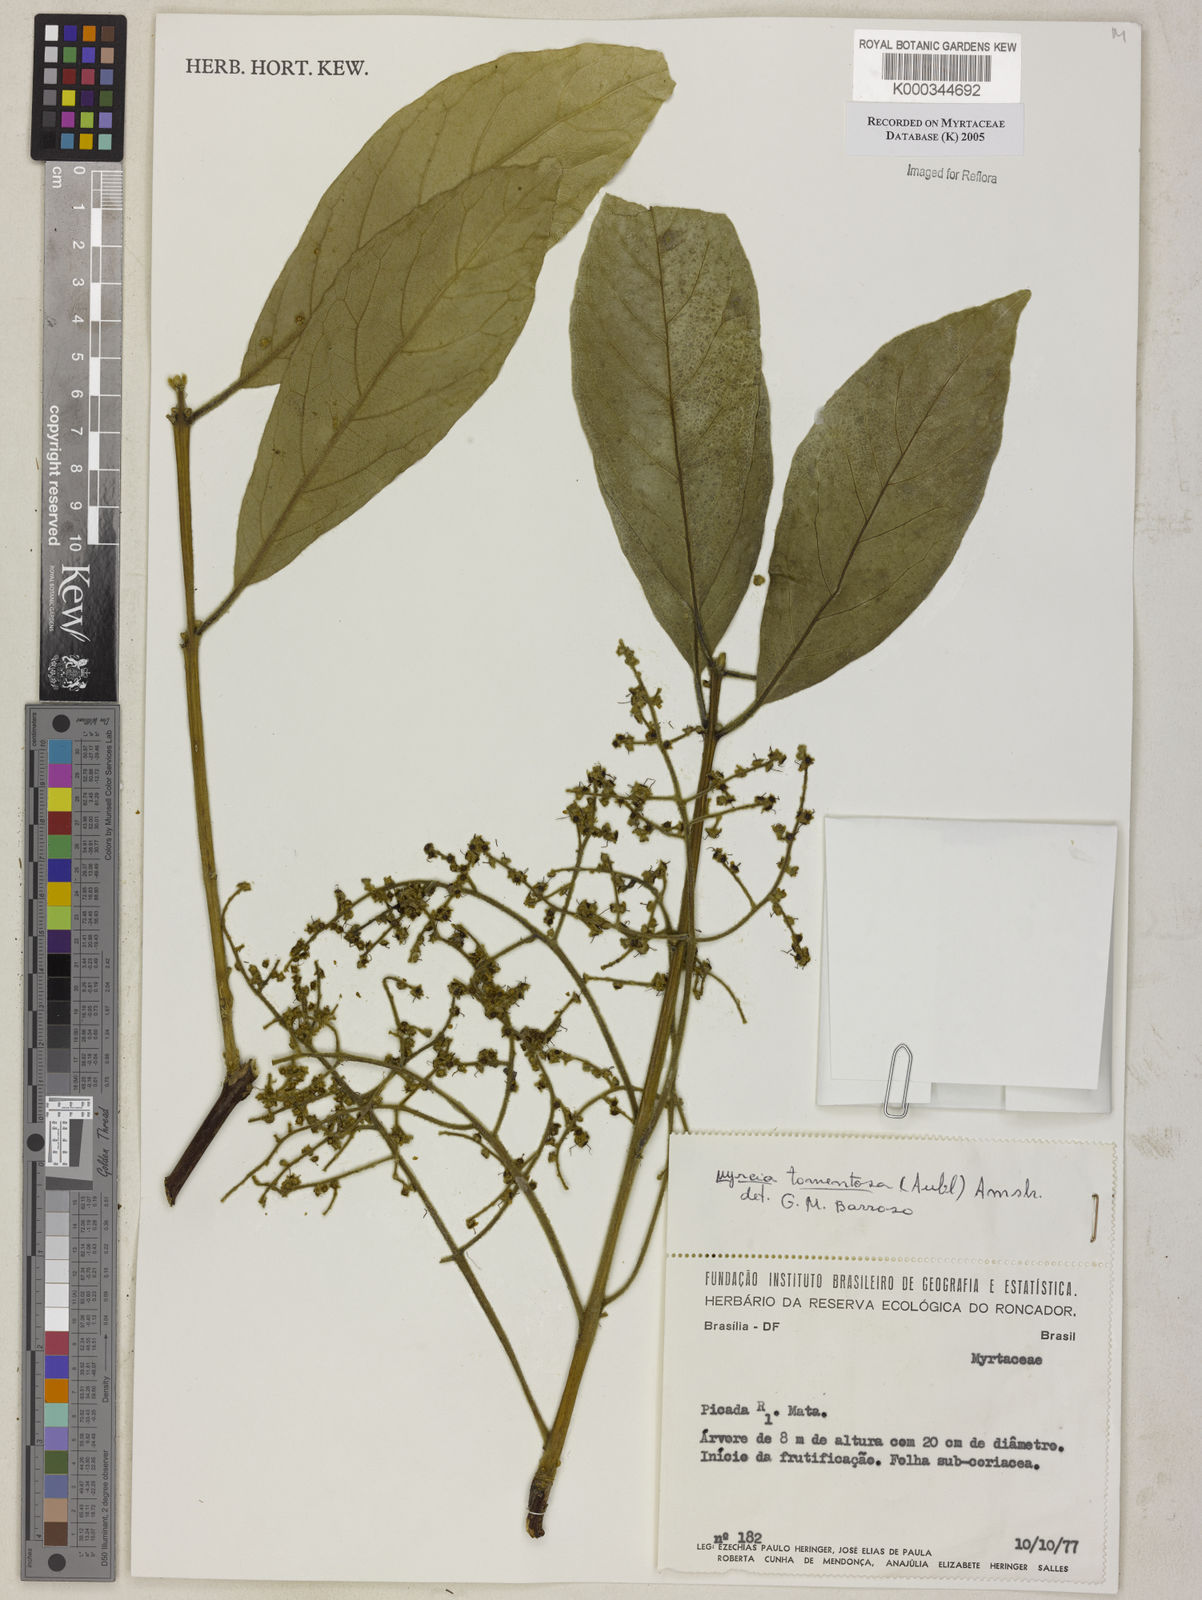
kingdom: Plantae
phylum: Tracheophyta
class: Magnoliopsida
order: Myrtales
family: Myrtaceae
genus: Myrcia
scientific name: Myrcia tomentosa
